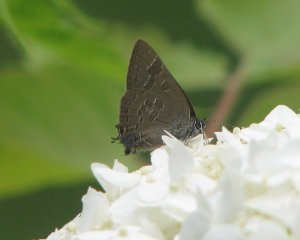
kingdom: Animalia
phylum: Arthropoda
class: Insecta
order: Lepidoptera
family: Lycaenidae
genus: Strymon
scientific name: Strymon caryaevorus
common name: Hickory Hairstreak
